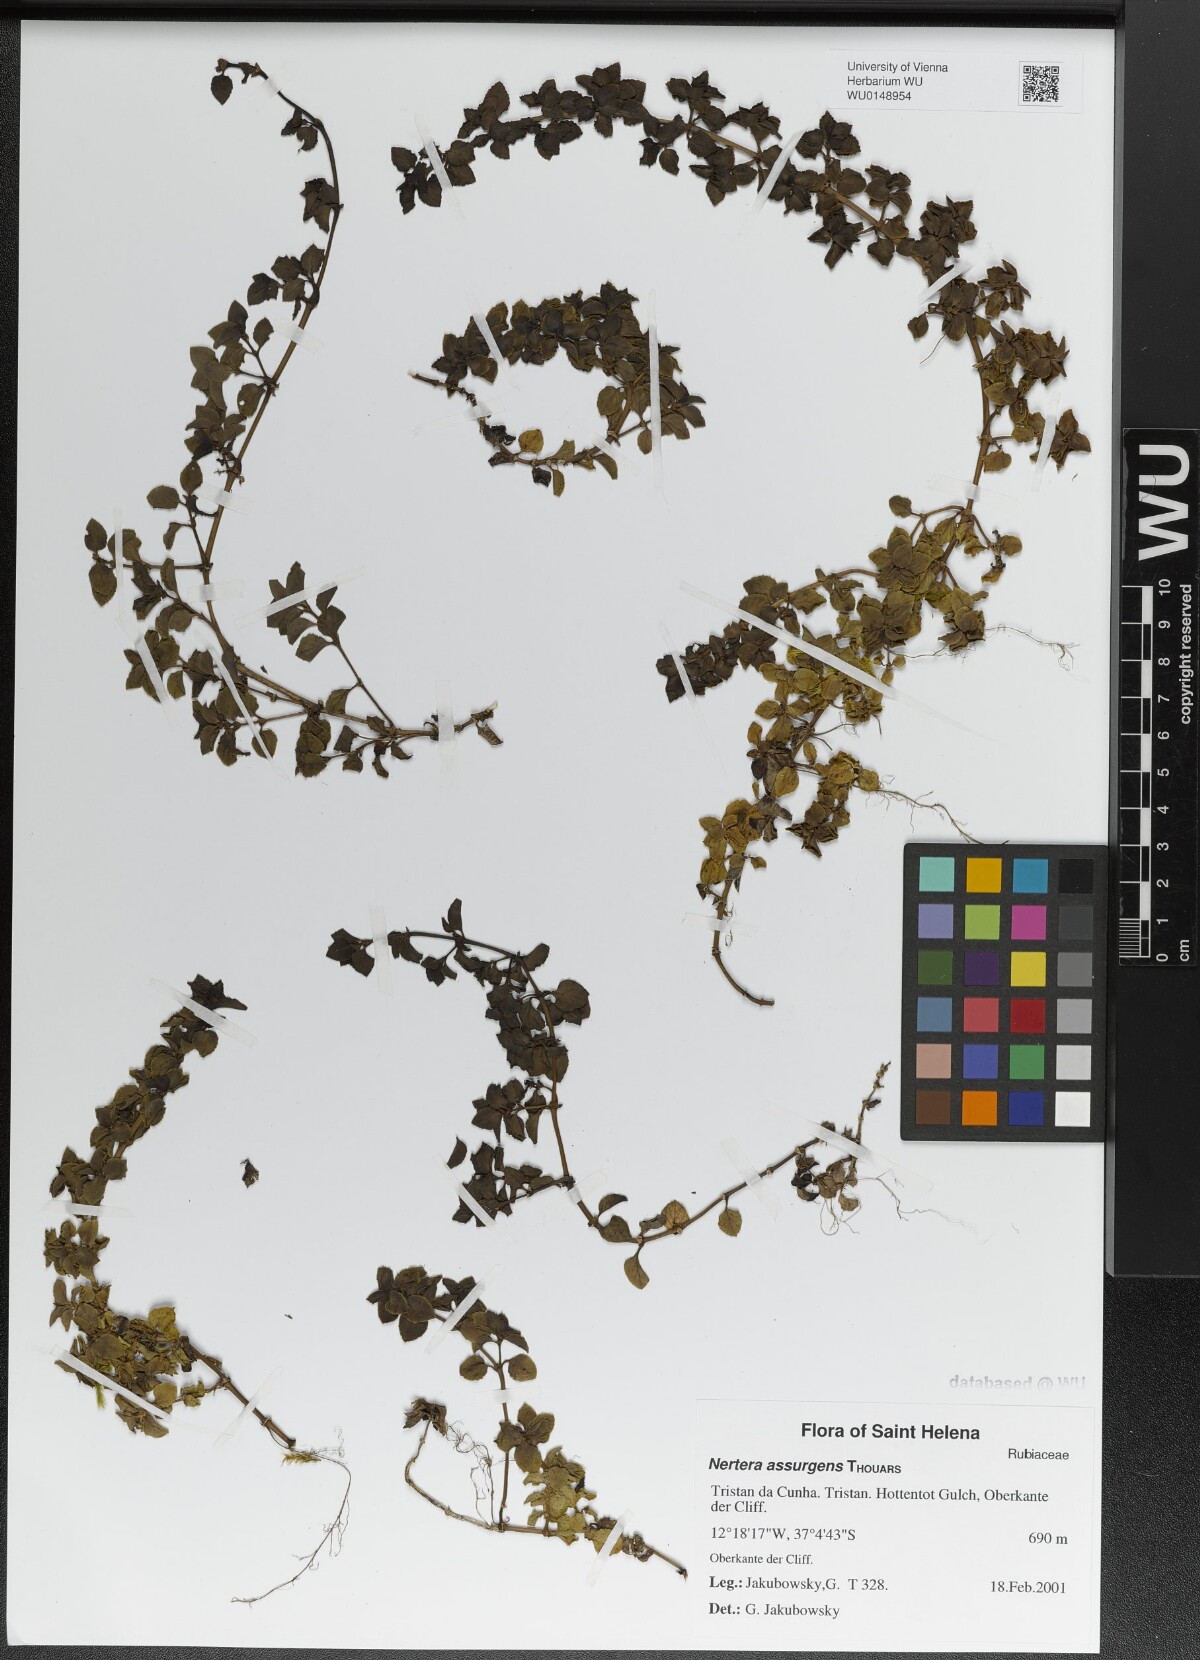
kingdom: Plantae
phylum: Tracheophyta
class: Magnoliopsida
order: Gentianales
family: Rubiaceae
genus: Nertera
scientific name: Nertera granadensis
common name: Beadplant
